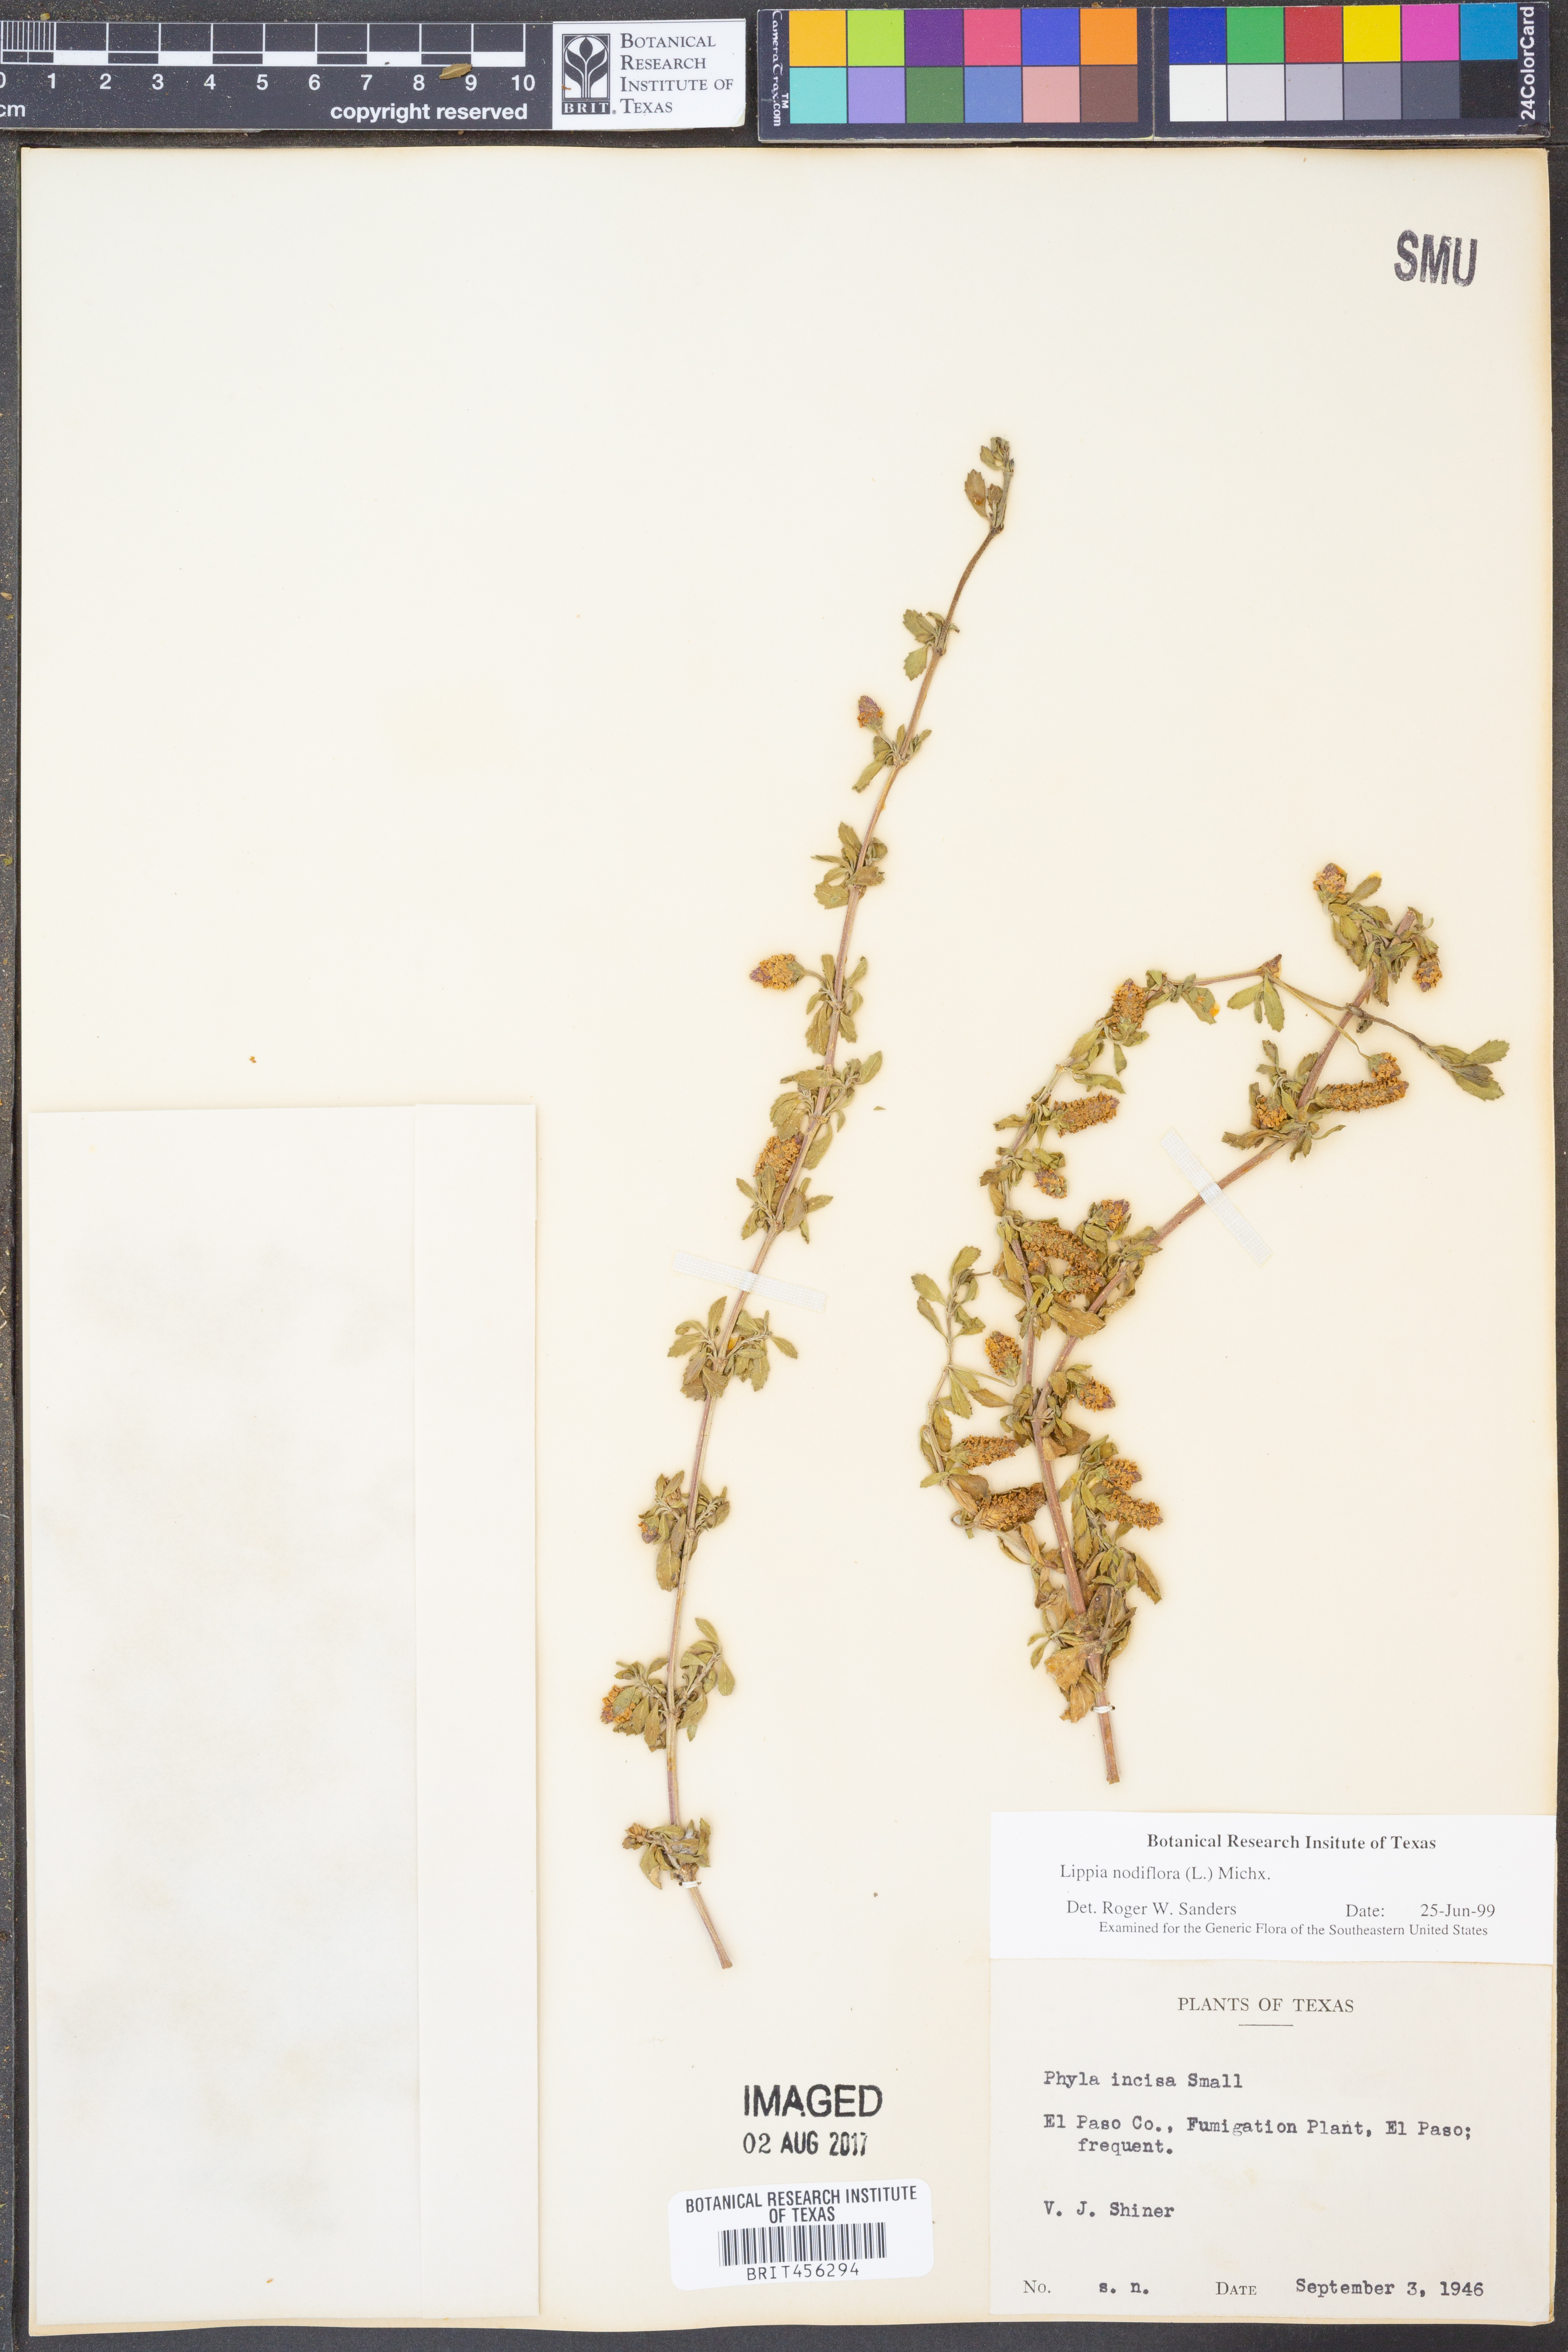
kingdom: Plantae
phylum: Tracheophyta
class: Magnoliopsida
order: Lamiales
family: Verbenaceae
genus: Phyla
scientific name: Phyla nodiflora
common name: Frogfruit
